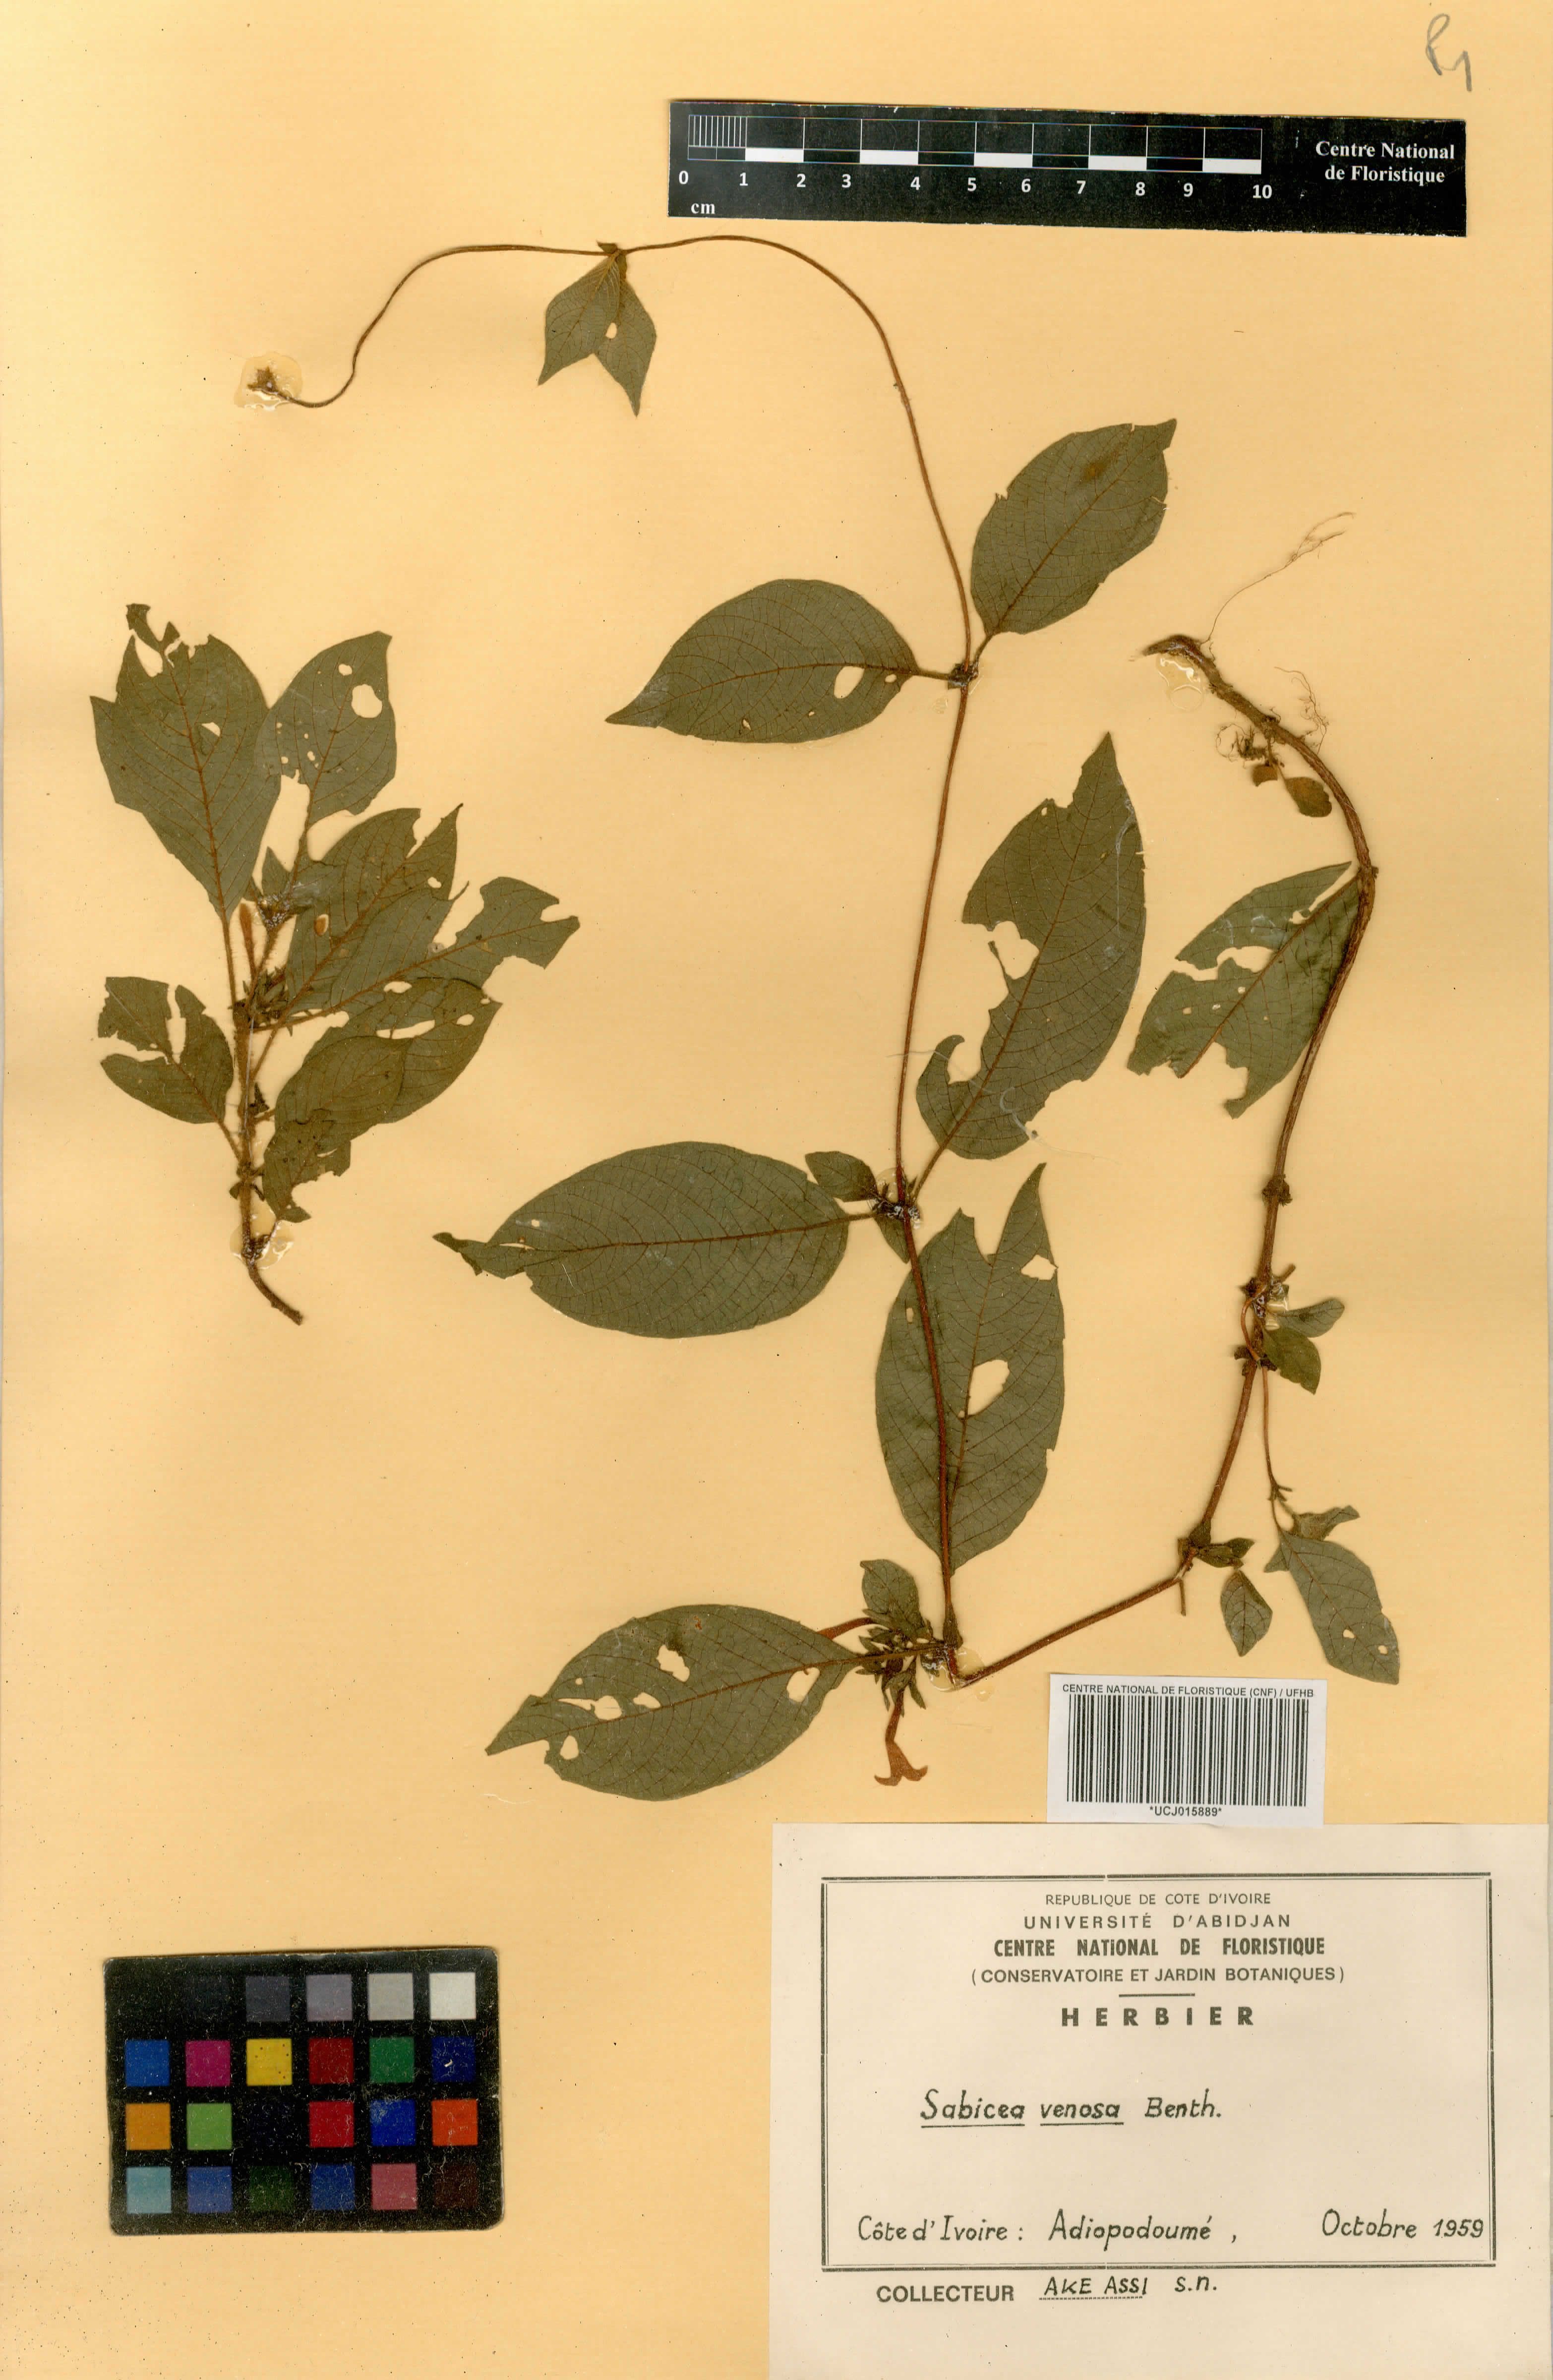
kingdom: Plantae
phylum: Tracheophyta
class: Magnoliopsida
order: Gentianales
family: Rubiaceae
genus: Sabicea
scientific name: Sabicea venosa
